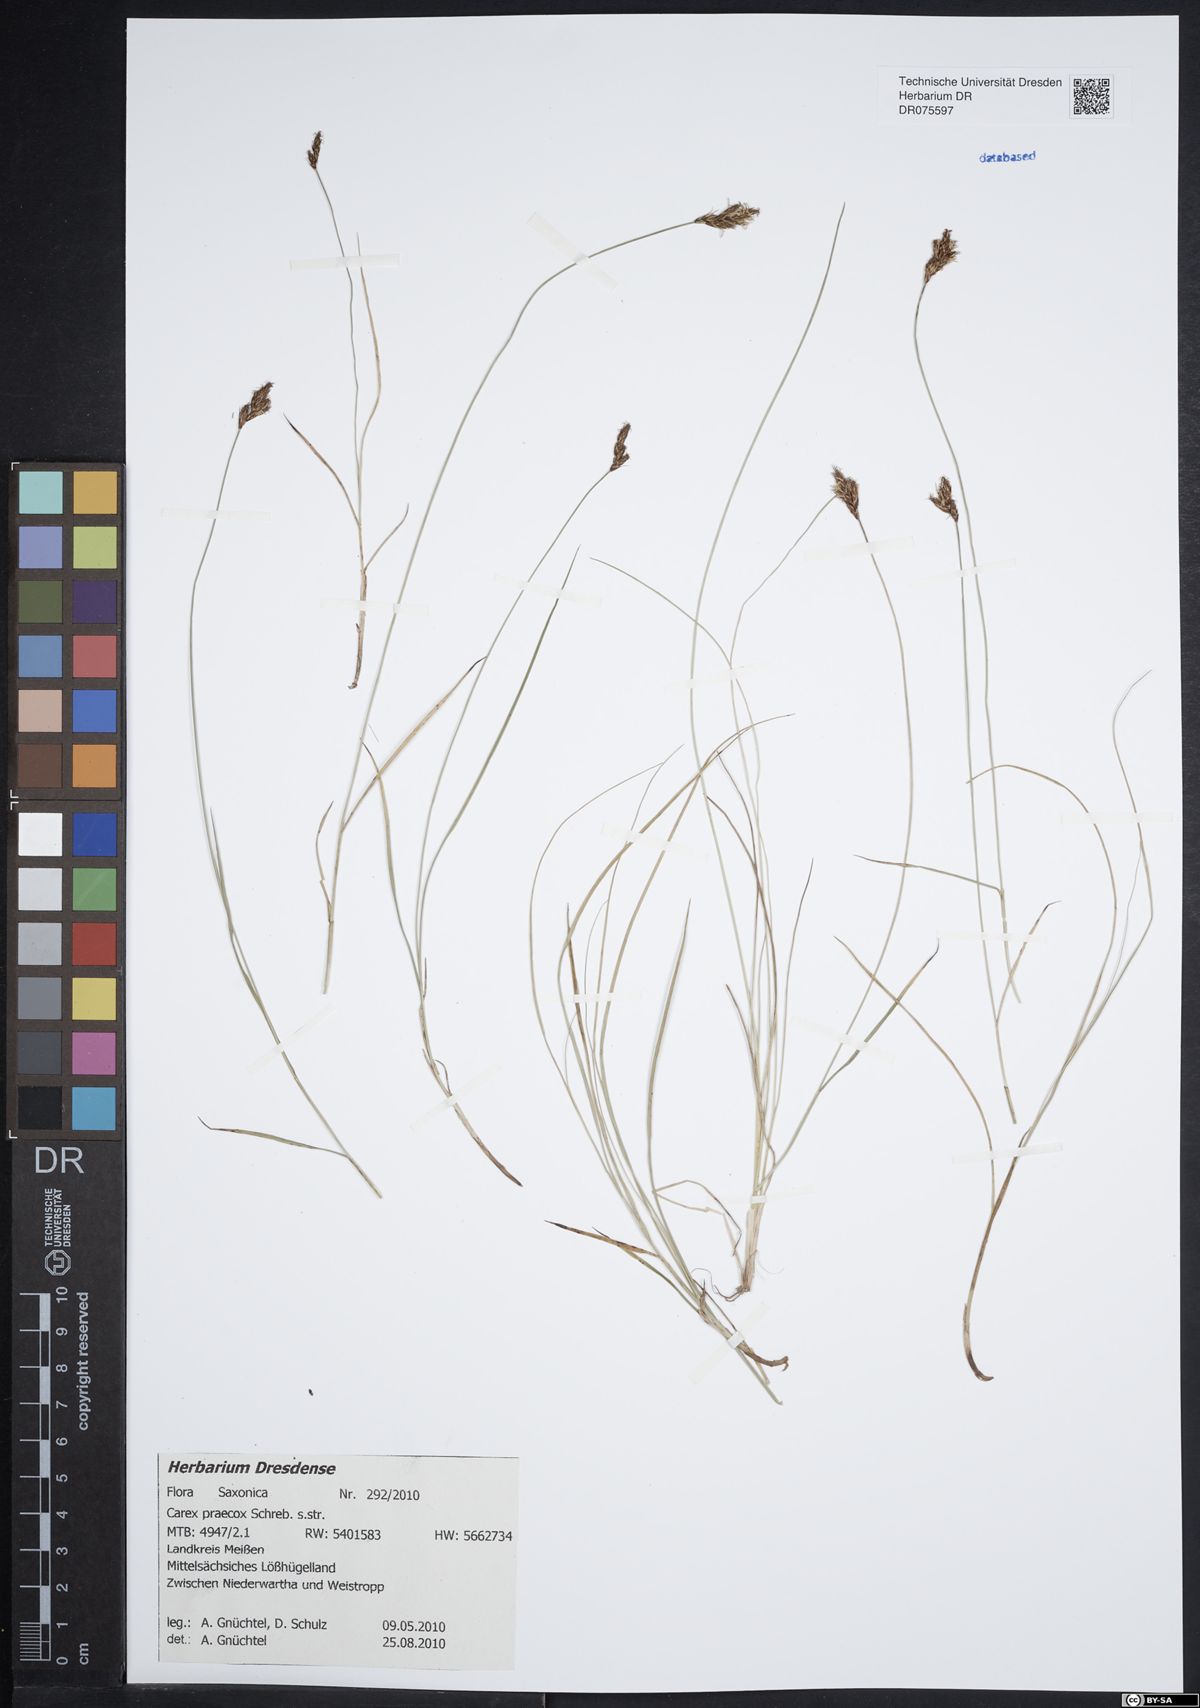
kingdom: Plantae
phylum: Tracheophyta
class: Liliopsida
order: Poales
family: Cyperaceae
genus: Carex
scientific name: Carex praecox
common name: Early sedge
